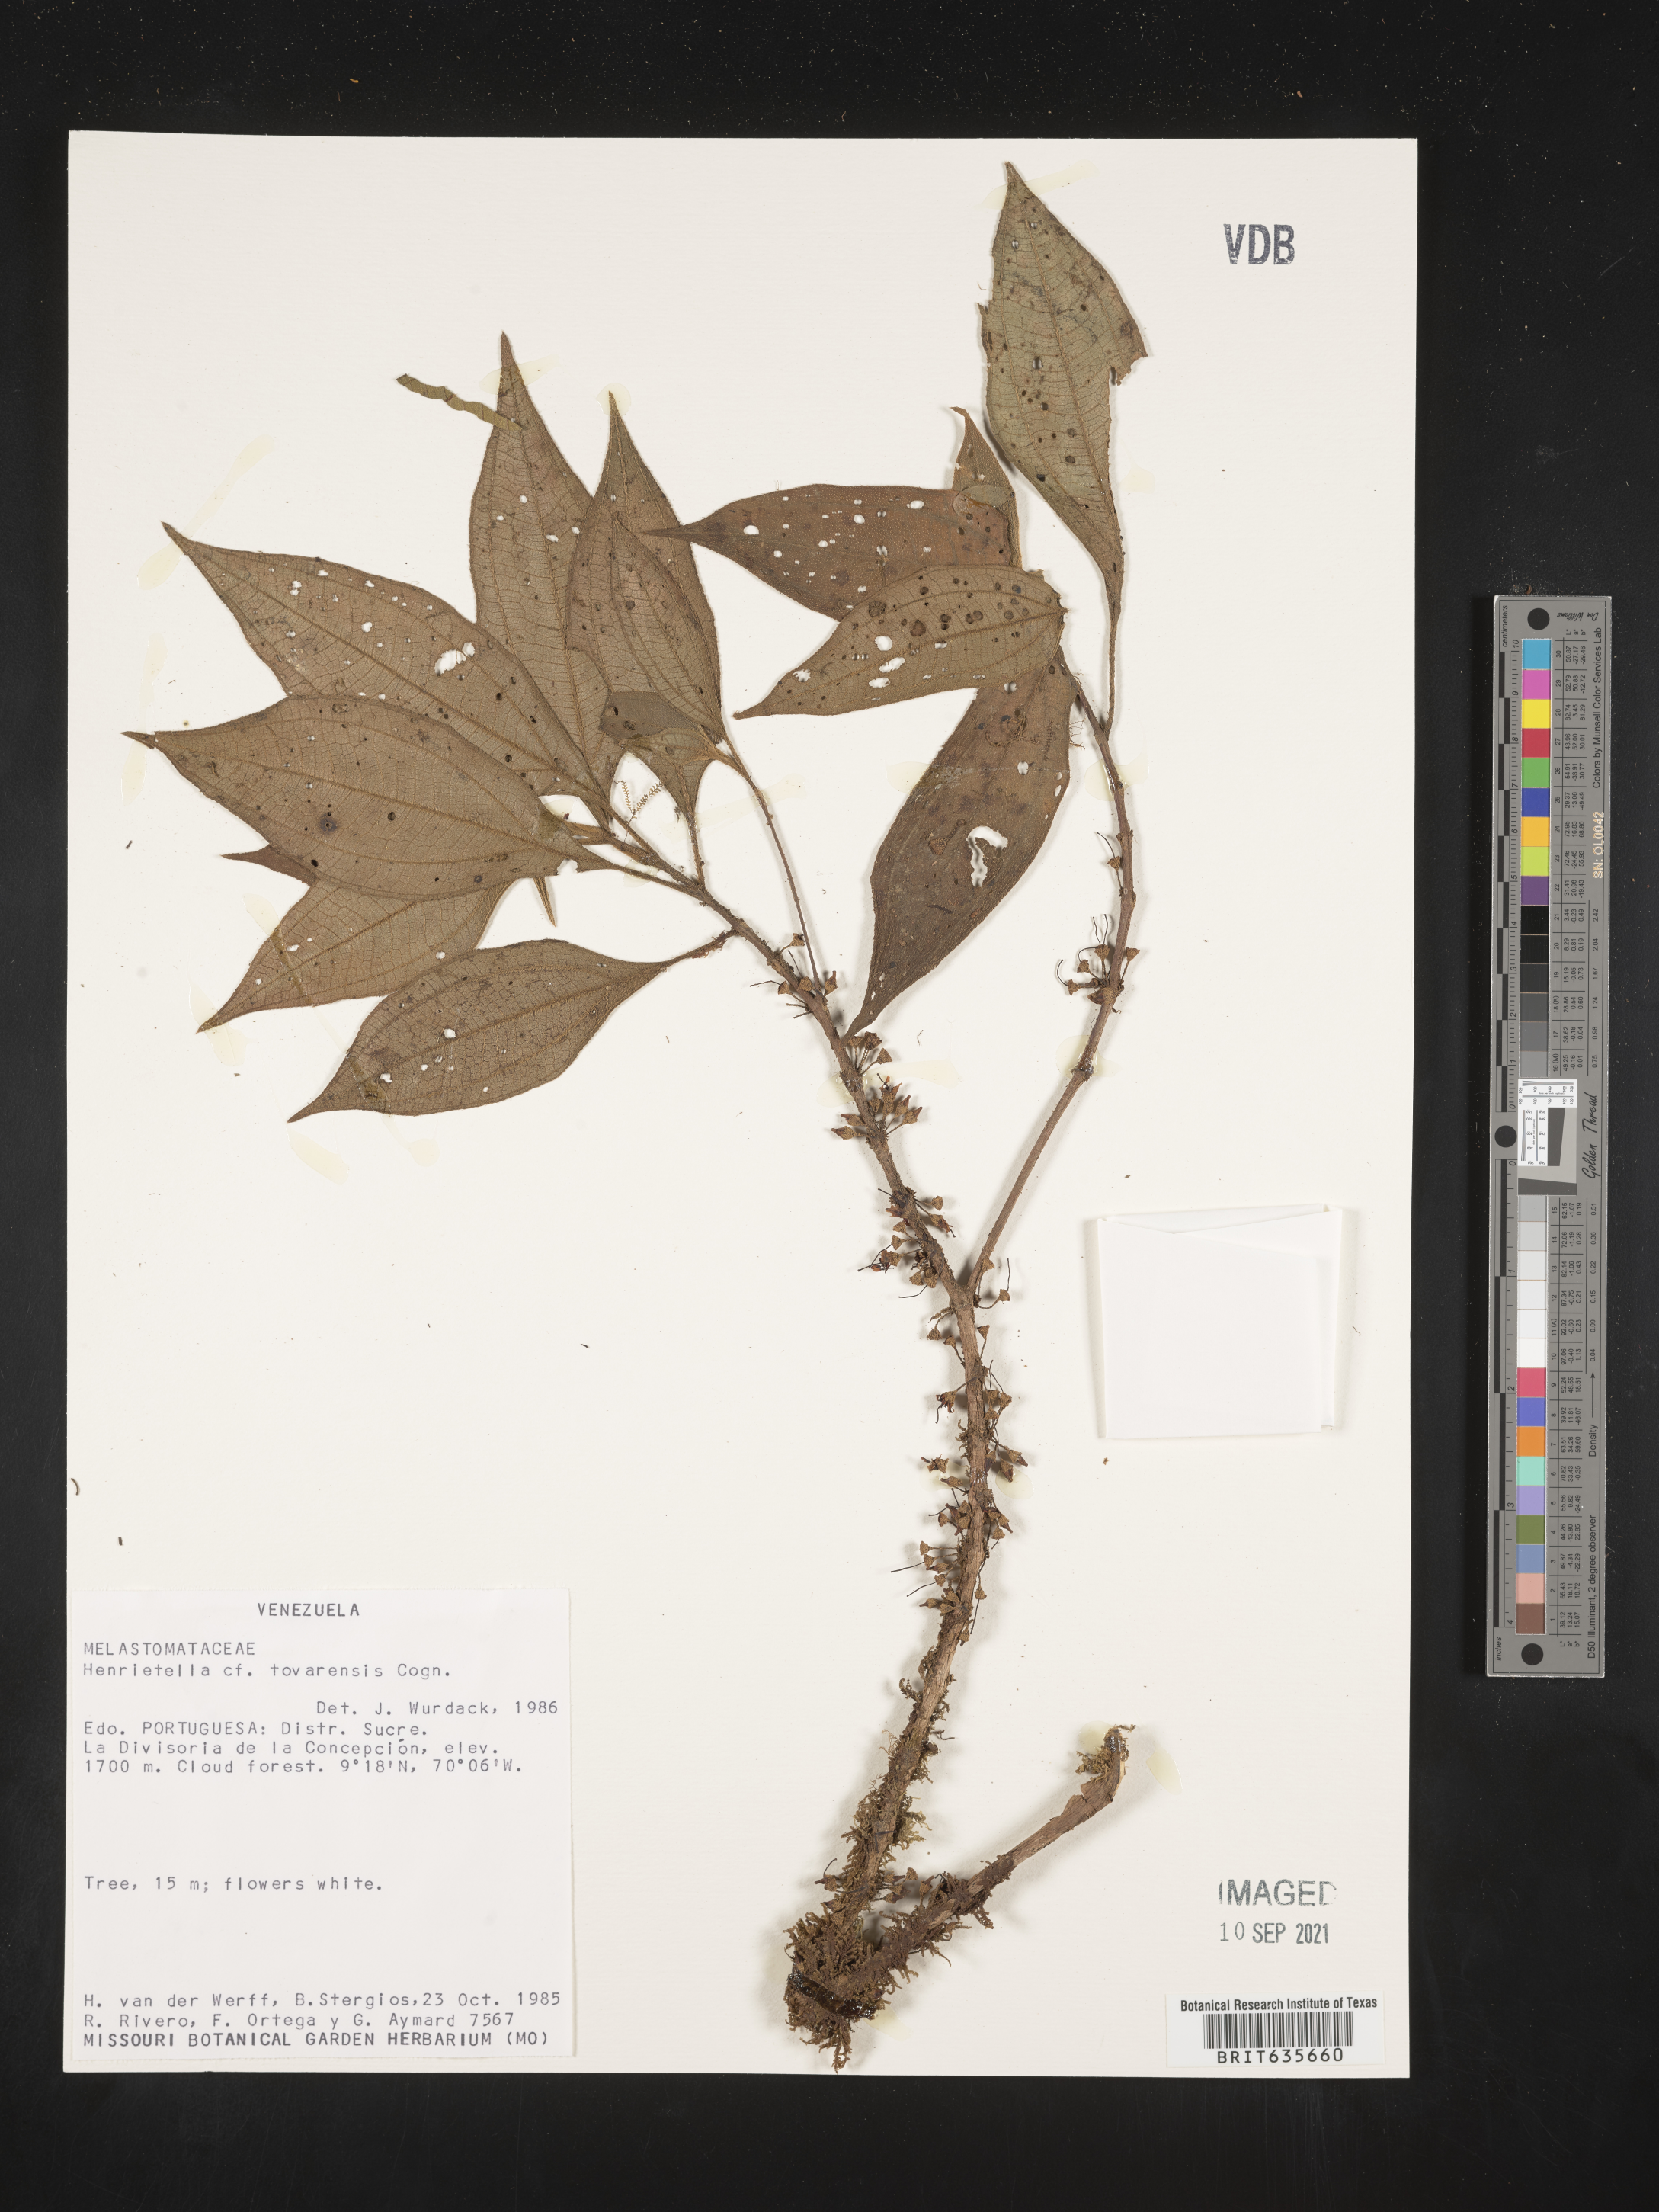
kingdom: Plantae
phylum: Tracheophyta
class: Magnoliopsida
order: Myrtales
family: Melastomataceae
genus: Henriettea
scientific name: Henriettea
